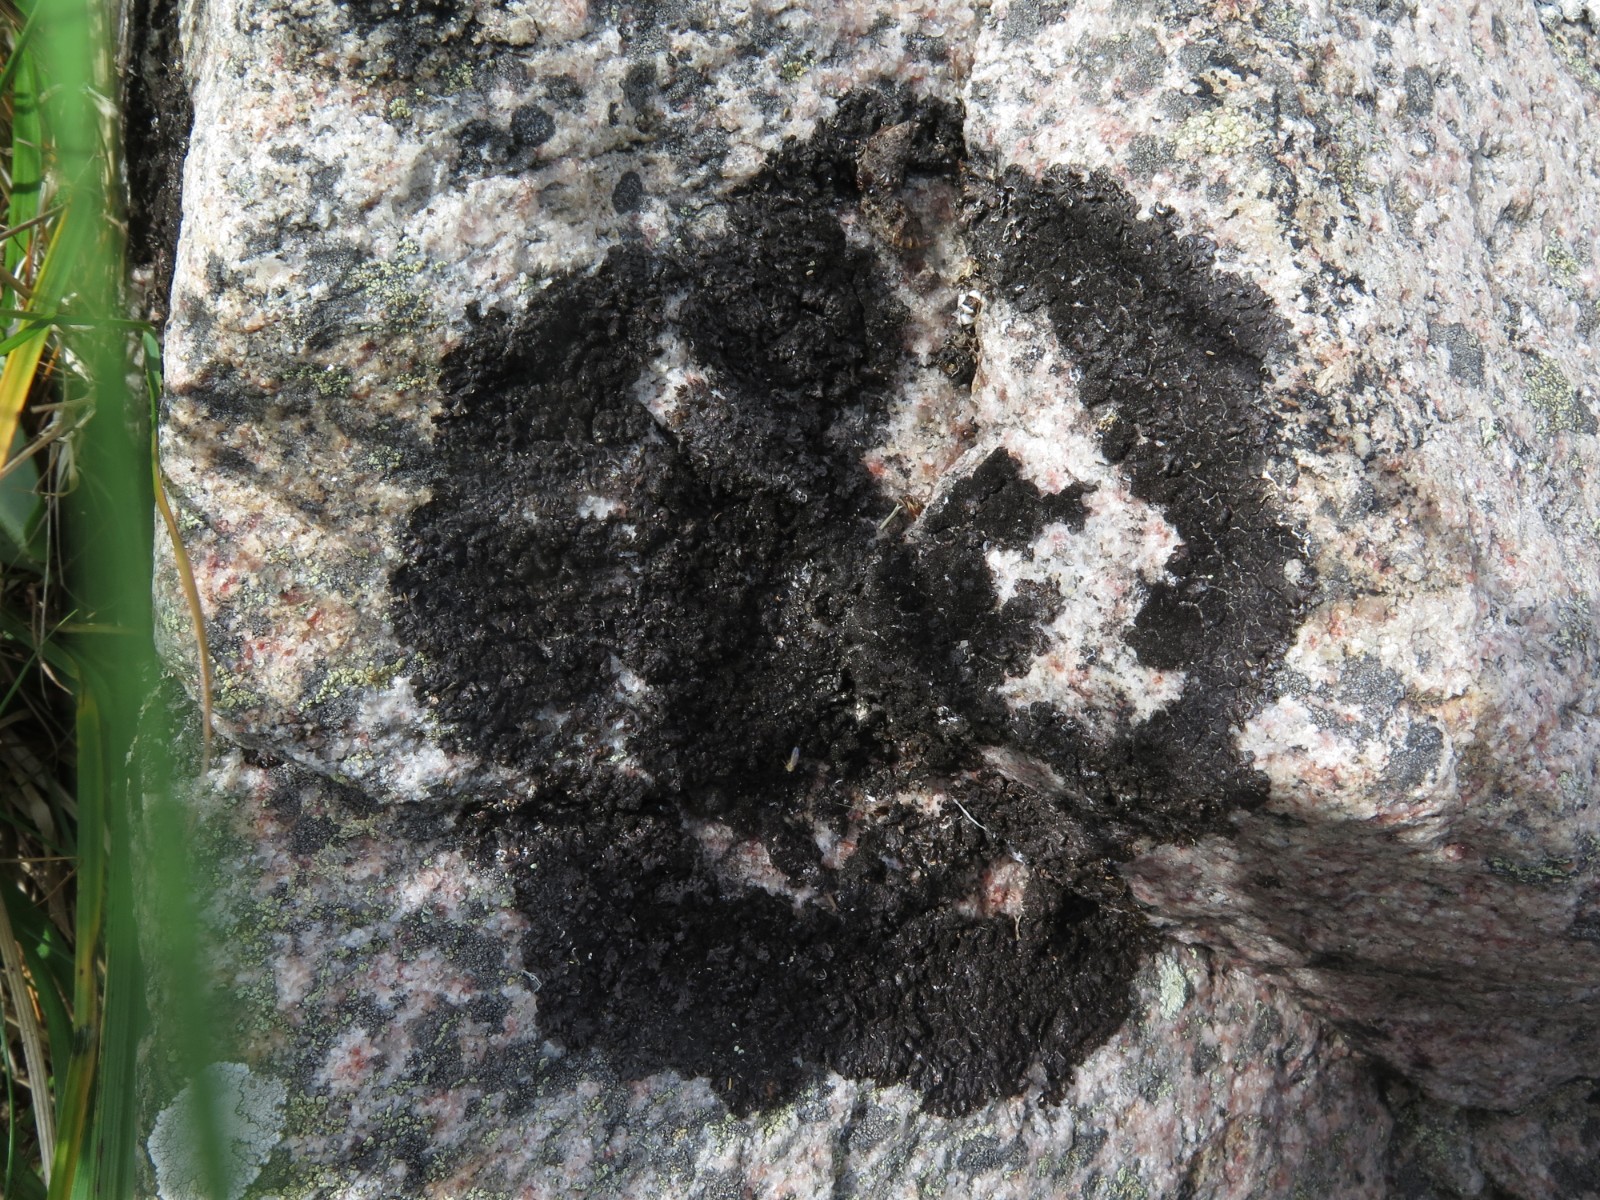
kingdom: Fungi
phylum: Ascomycota
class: Lecanoromycetes
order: Lecanorales
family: Parmeliaceae
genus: Melanelixia
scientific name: Melanelixia fuliginosa
